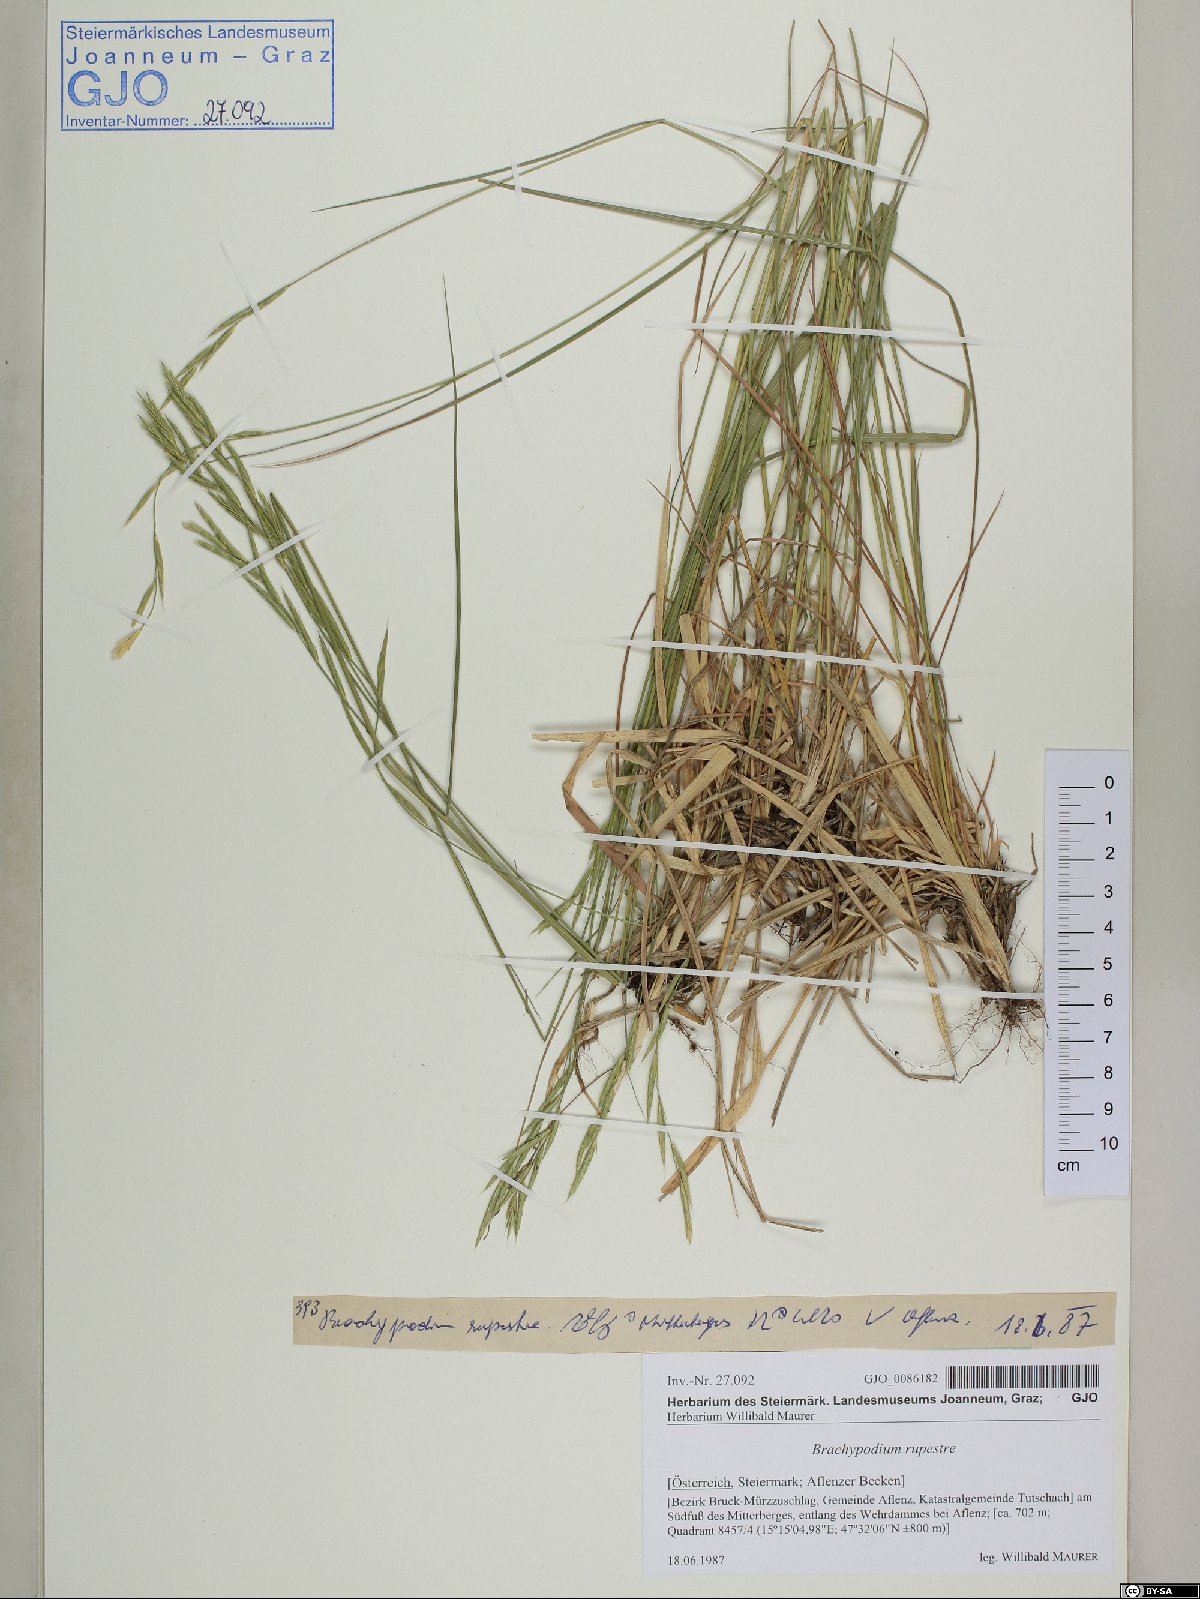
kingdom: Plantae
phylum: Tracheophyta
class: Liliopsida
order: Poales
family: Poaceae
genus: Brachypodium
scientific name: Brachypodium pinnatum
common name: Tor grass
